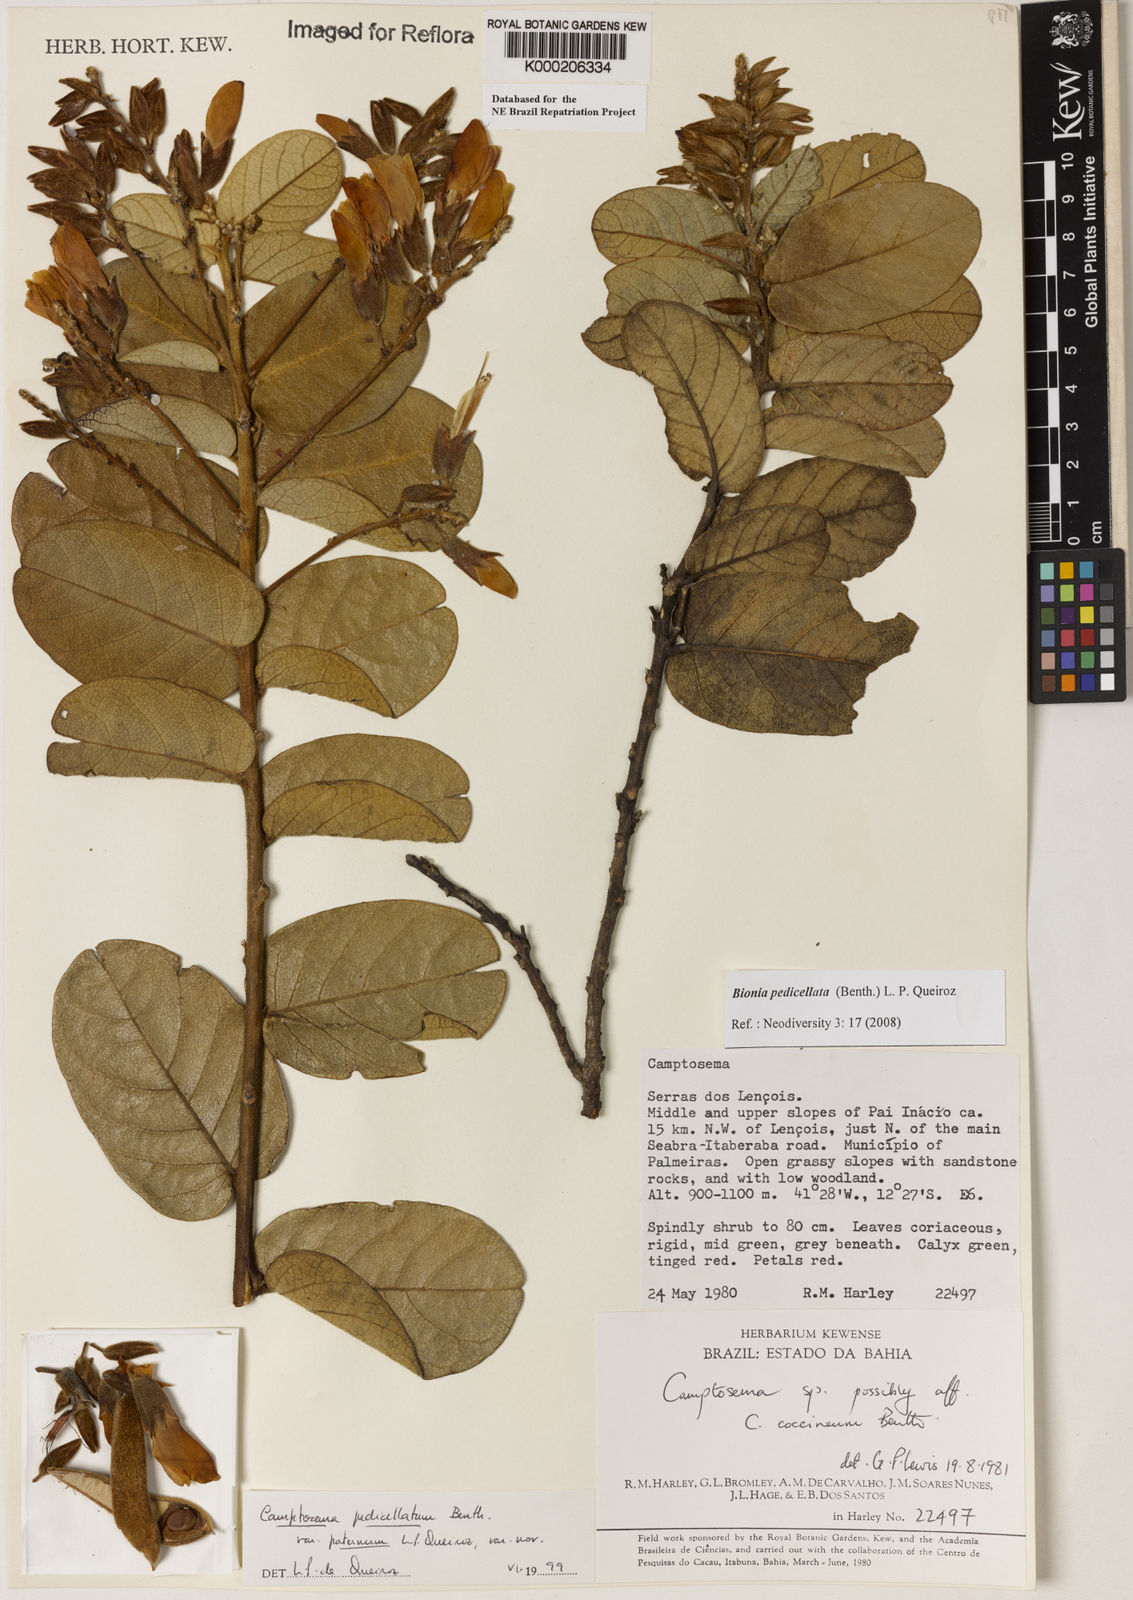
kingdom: Plantae
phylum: Tracheophyta
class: Magnoliopsida
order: Fabales
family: Fabaceae
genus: Camptosema
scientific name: Camptosema pedicellatum
